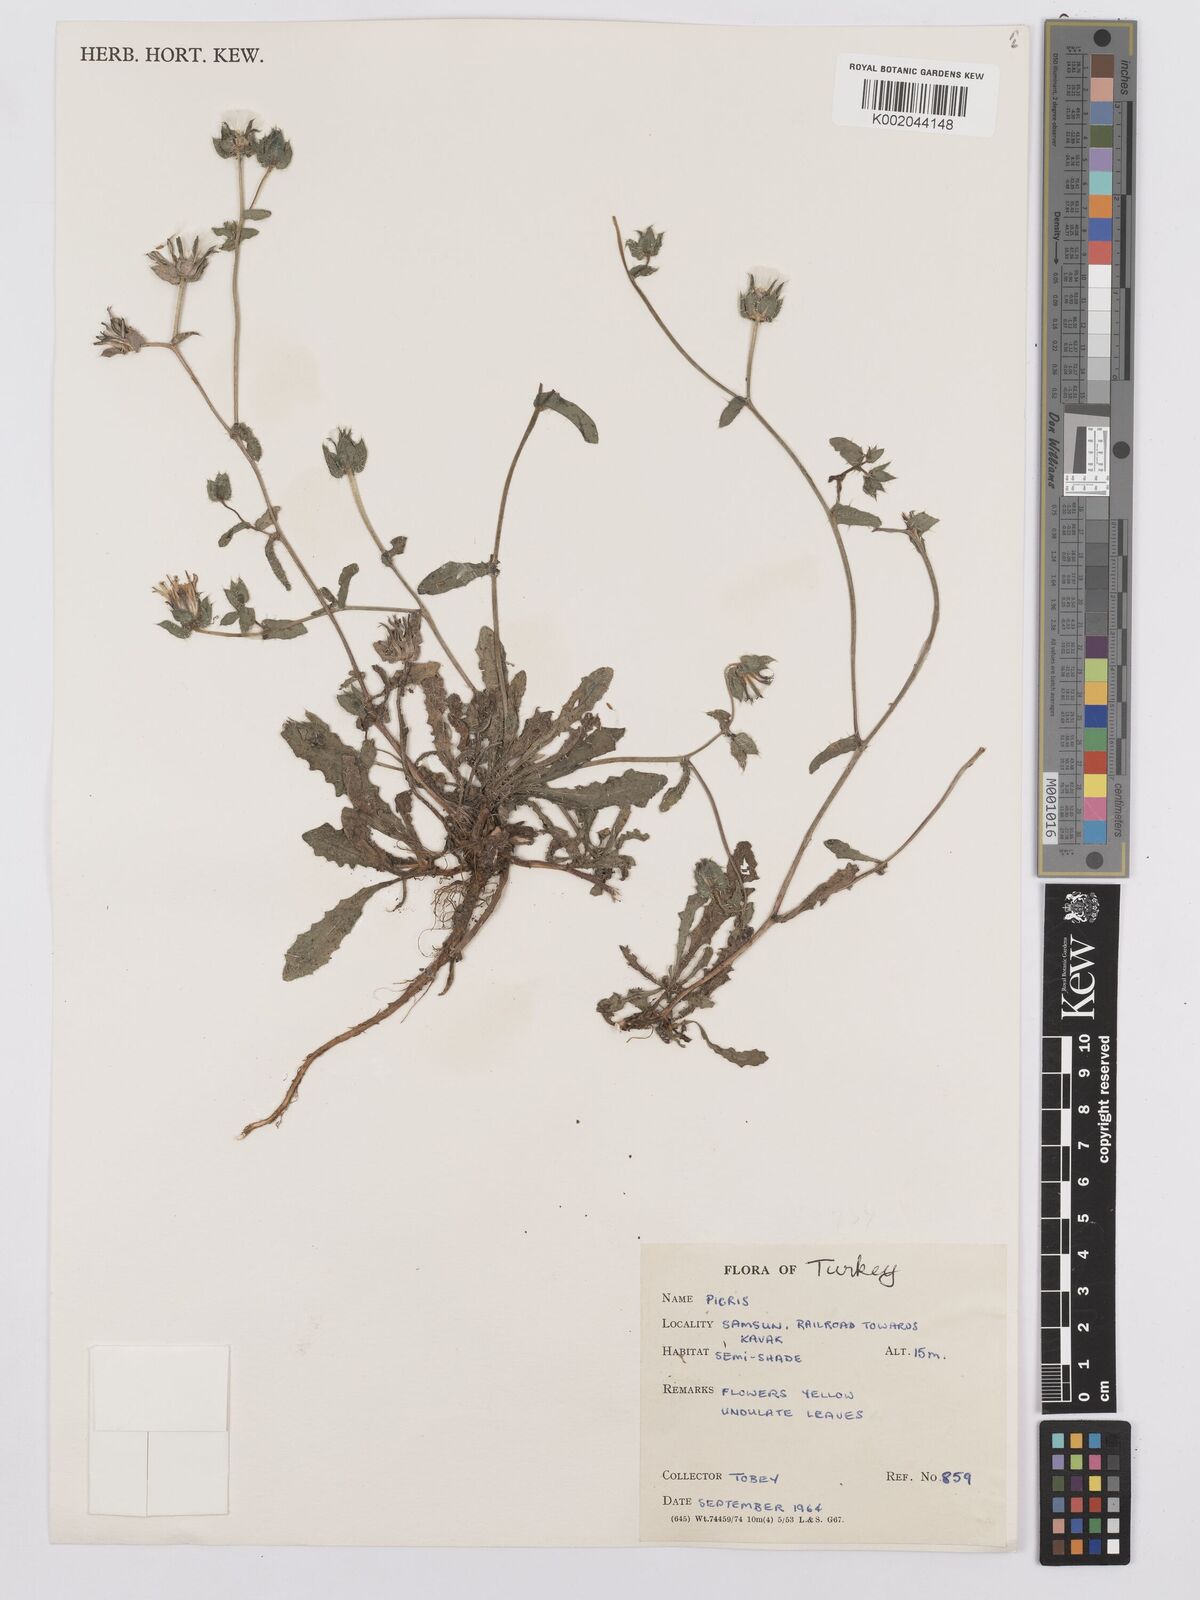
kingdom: Plantae
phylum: Tracheophyta
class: Magnoliopsida
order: Asterales
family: Asteraceae
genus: Picris
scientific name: Picris
